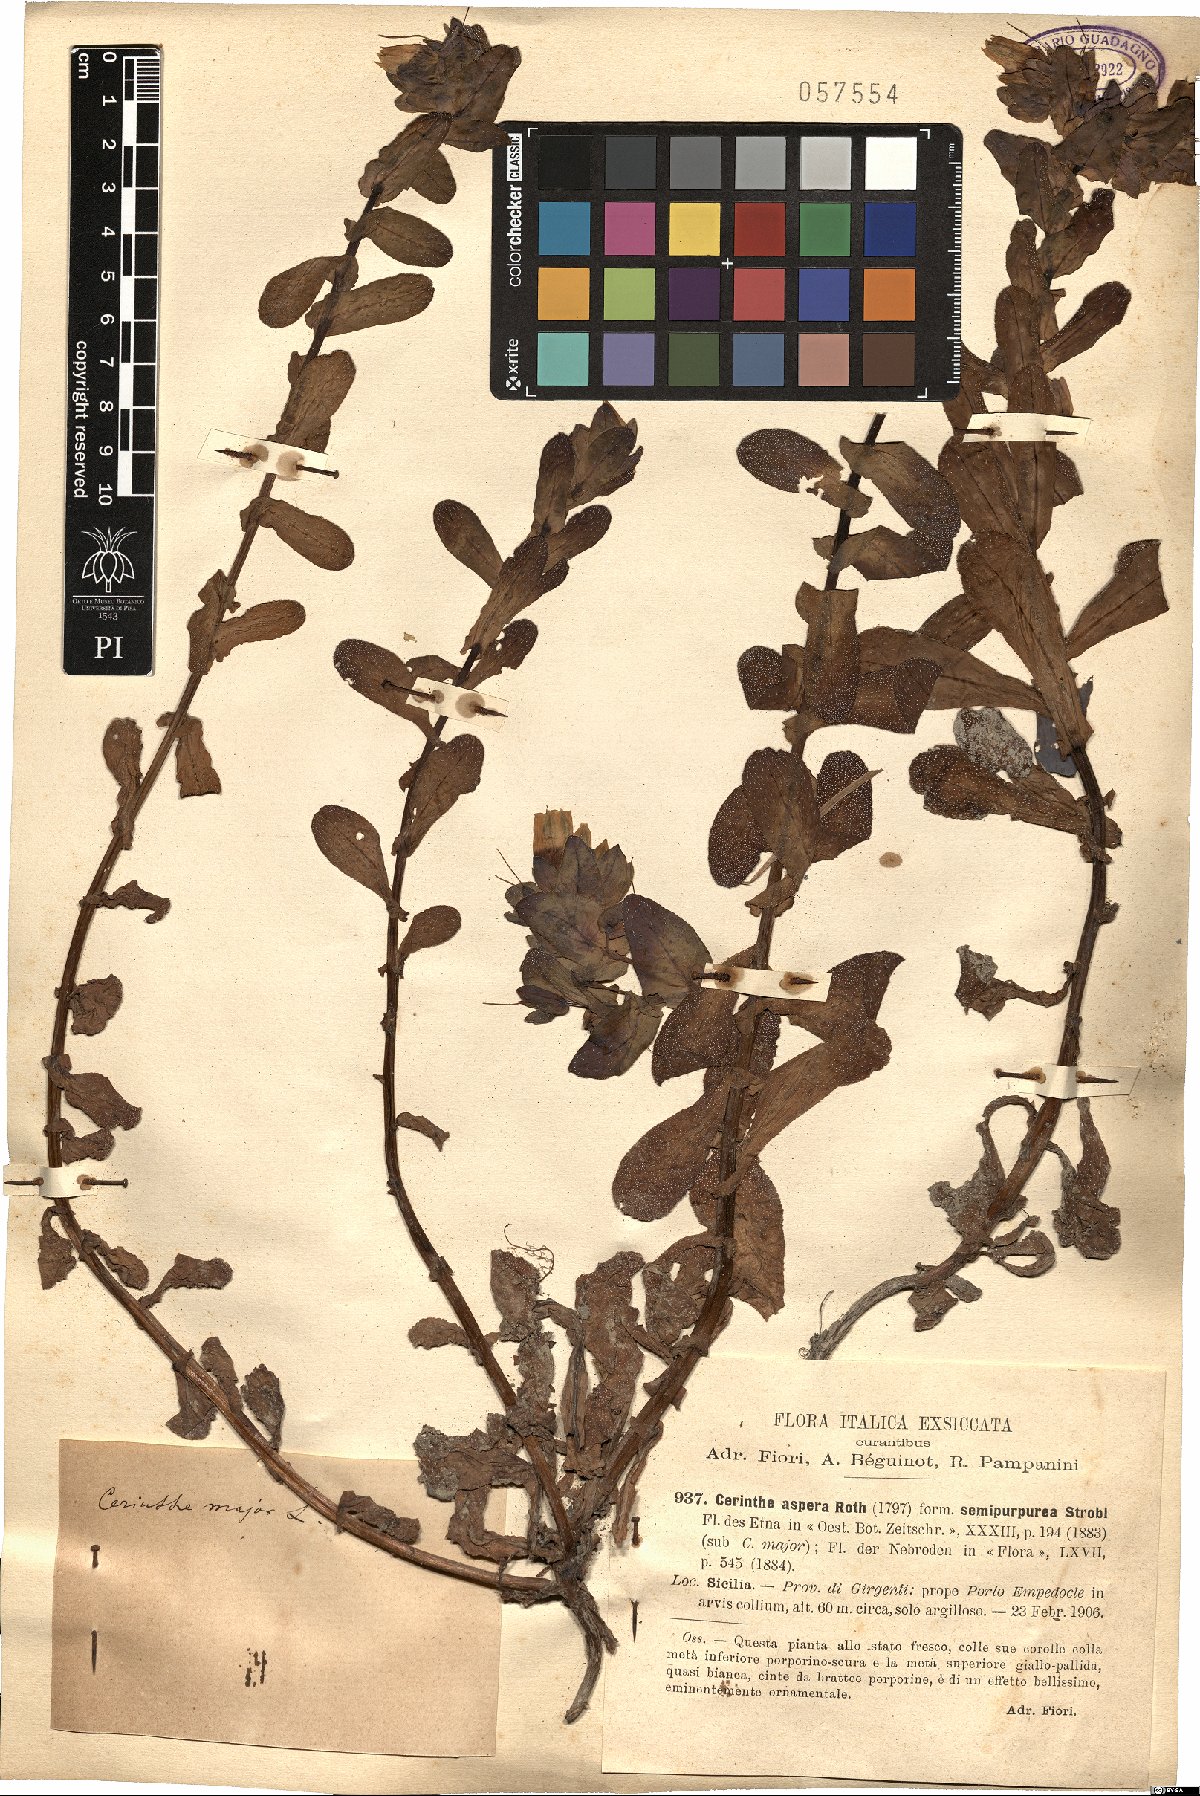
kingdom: Plantae
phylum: Tracheophyta
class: Magnoliopsida
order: Boraginales
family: Boraginaceae
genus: Cerinthe
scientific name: Cerinthe major
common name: Greater honeywort
